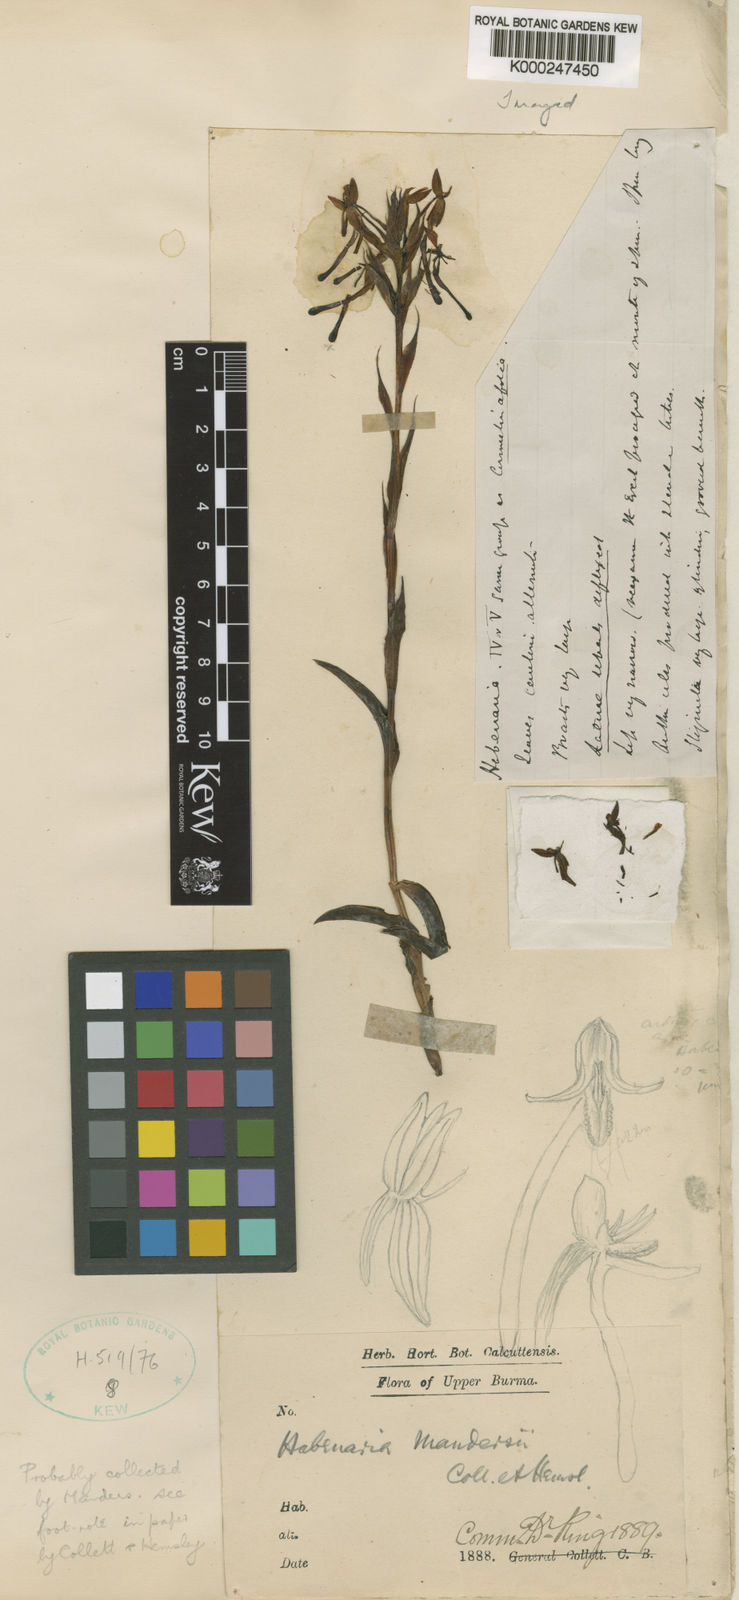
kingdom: Plantae
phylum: Tracheophyta
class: Liliopsida
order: Asparagales
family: Orchidaceae
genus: Habenaria
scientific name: Habenaria mandersii
